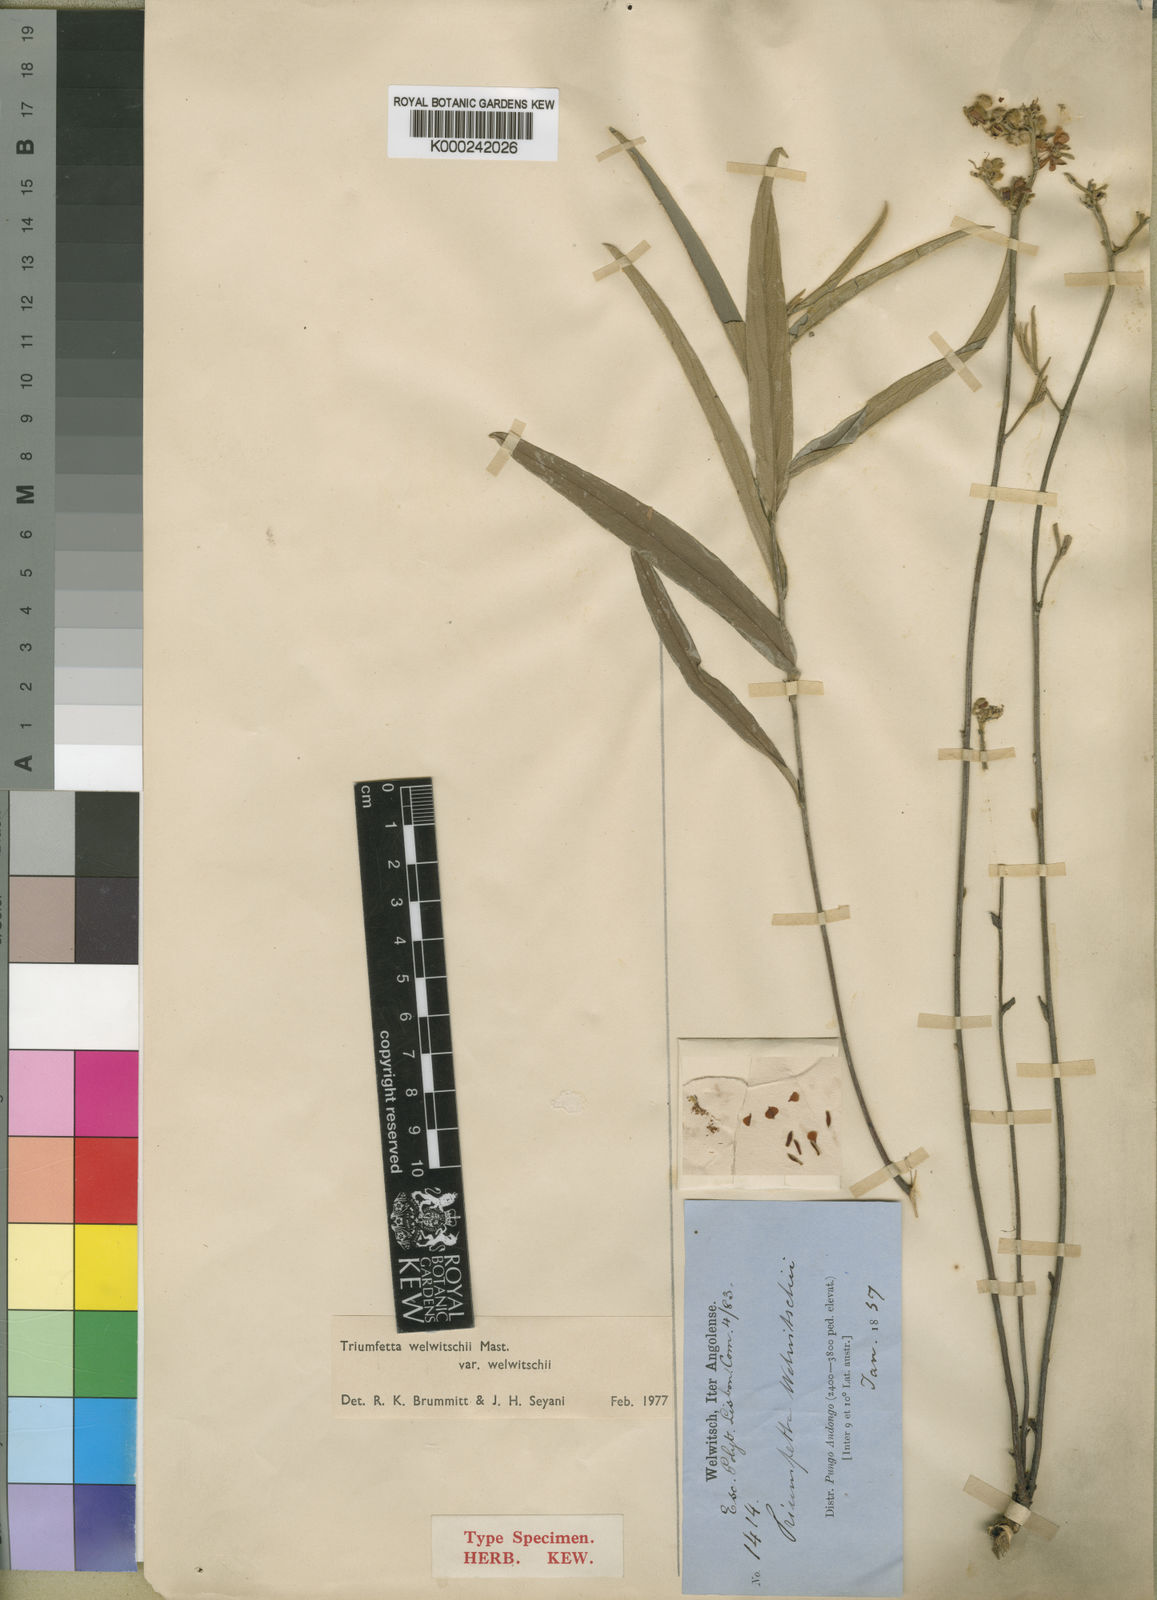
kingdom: Plantae
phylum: Tracheophyta
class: Magnoliopsida
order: Malvales
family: Malvaceae
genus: Triumfetta
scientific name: Triumfetta welwitschii
